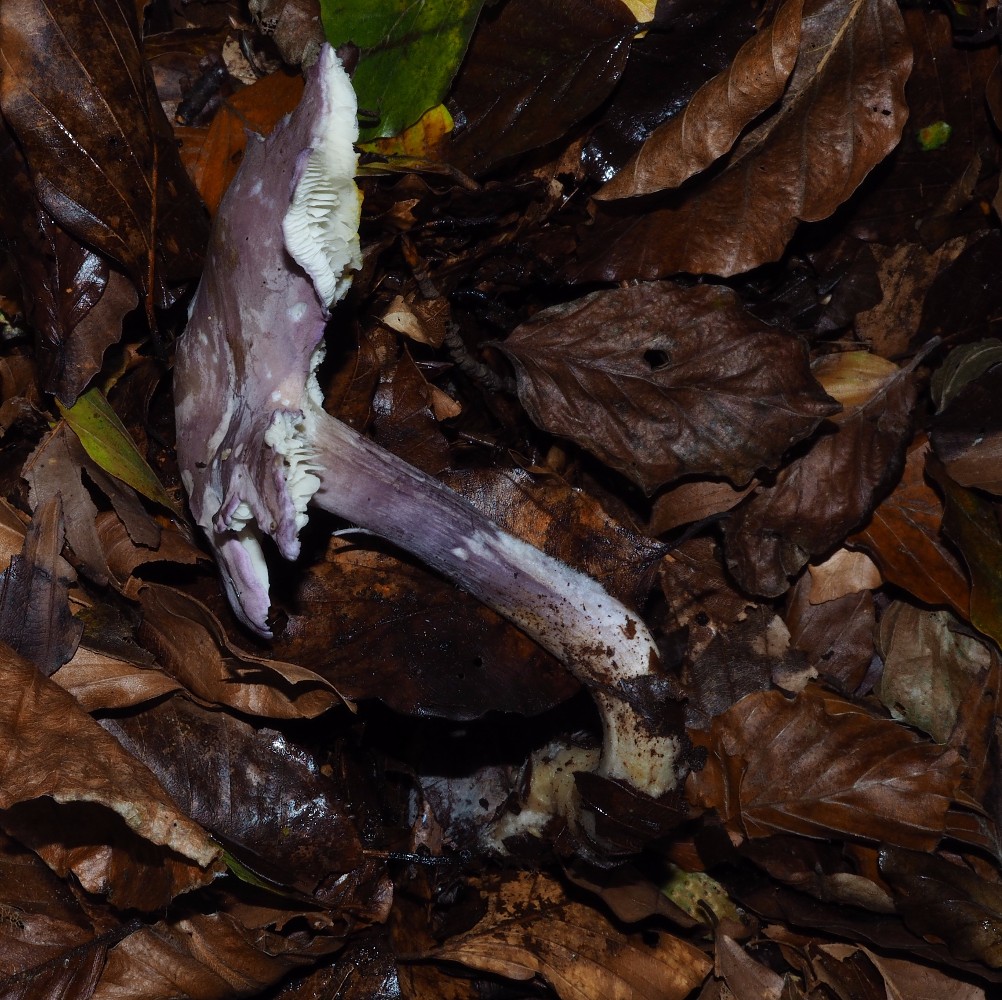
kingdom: Fungi
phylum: Basidiomycota
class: Agaricomycetes
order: Agaricales
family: Lyophyllaceae
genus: Calocybe
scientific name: Calocybe ionides
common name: violblå fagerhat
